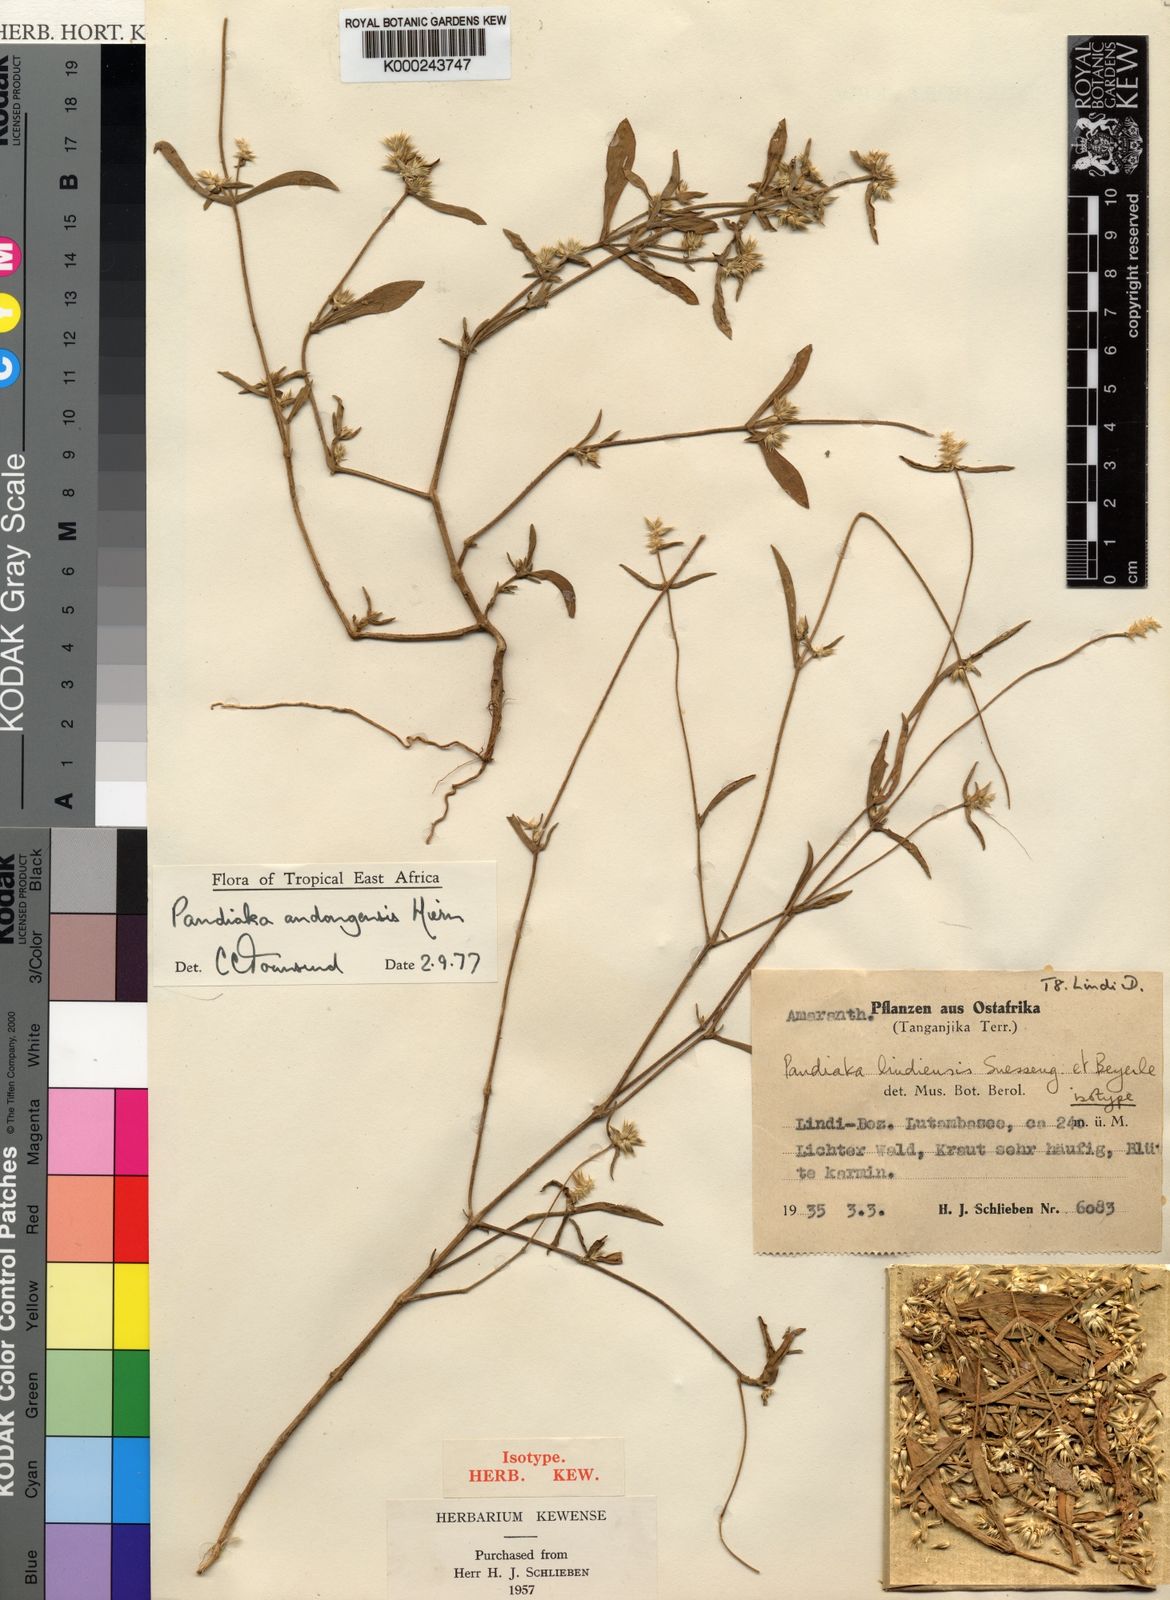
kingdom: Plantae
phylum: Tracheophyta
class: Magnoliopsida
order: Caryophyllales
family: Amaranthaceae
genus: Pandiaka
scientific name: Pandiaka rubrolutea
